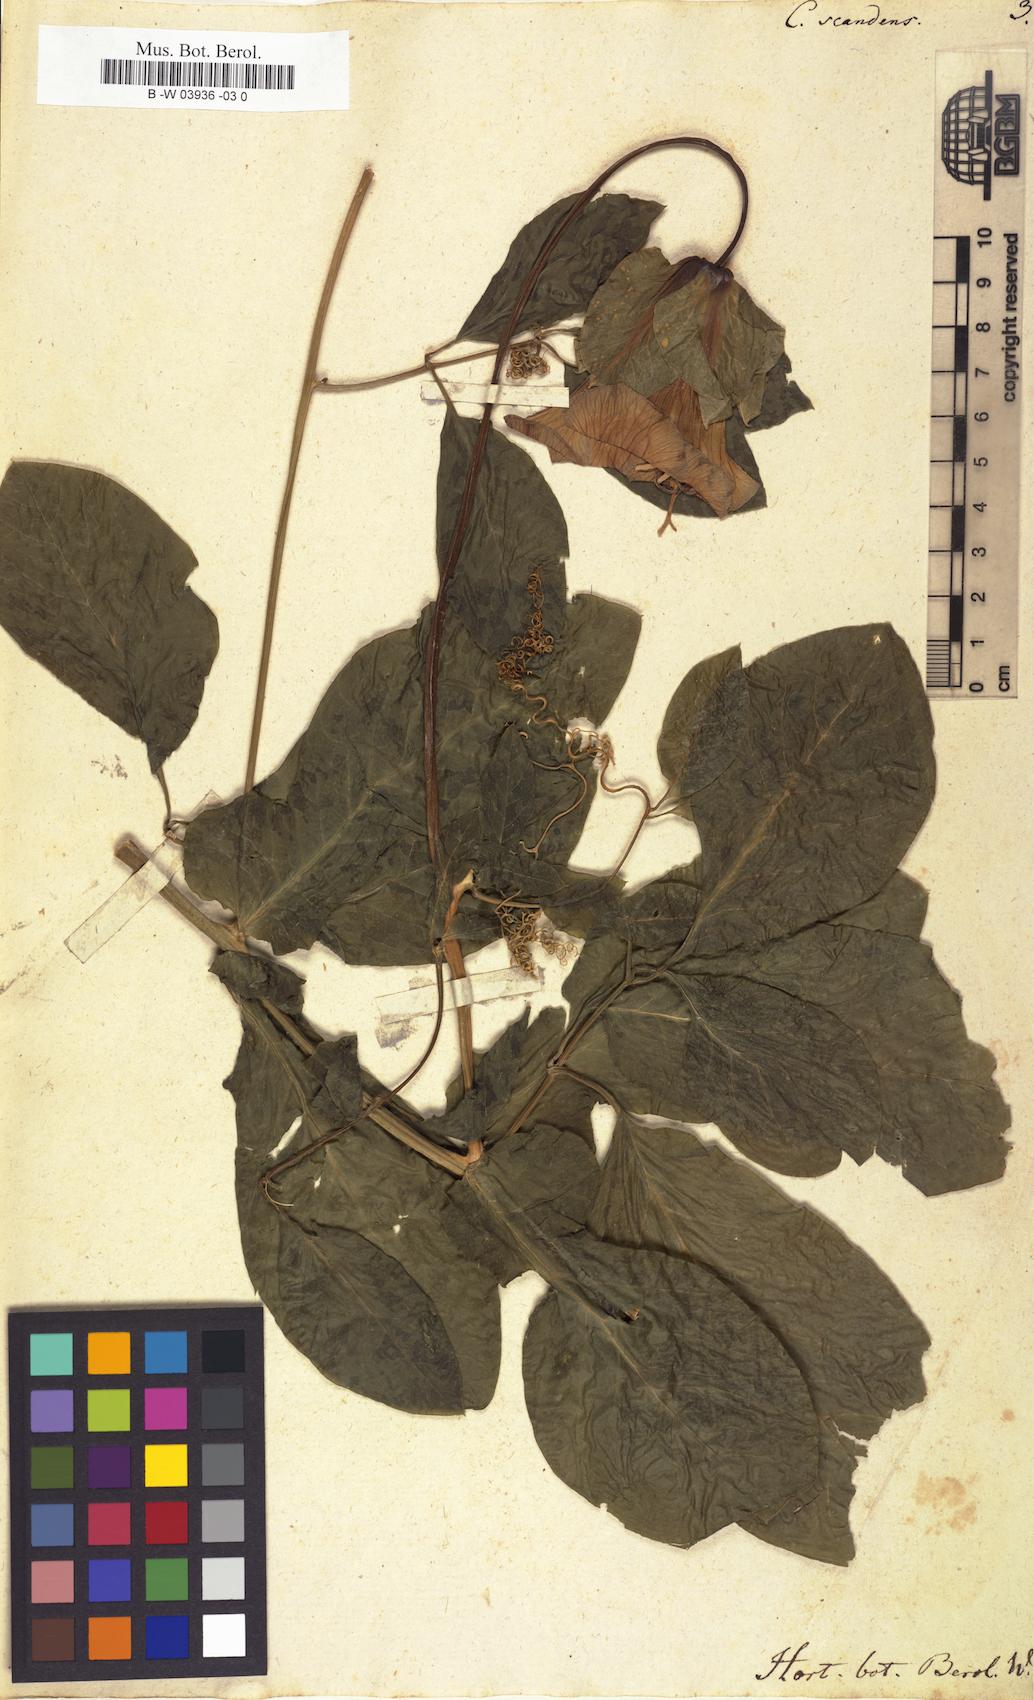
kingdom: Plantae
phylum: Tracheophyta
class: Magnoliopsida
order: Ericales
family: Polemoniaceae
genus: Cobaea
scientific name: Cobaea scandens
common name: Cup-and-saucer-vine
